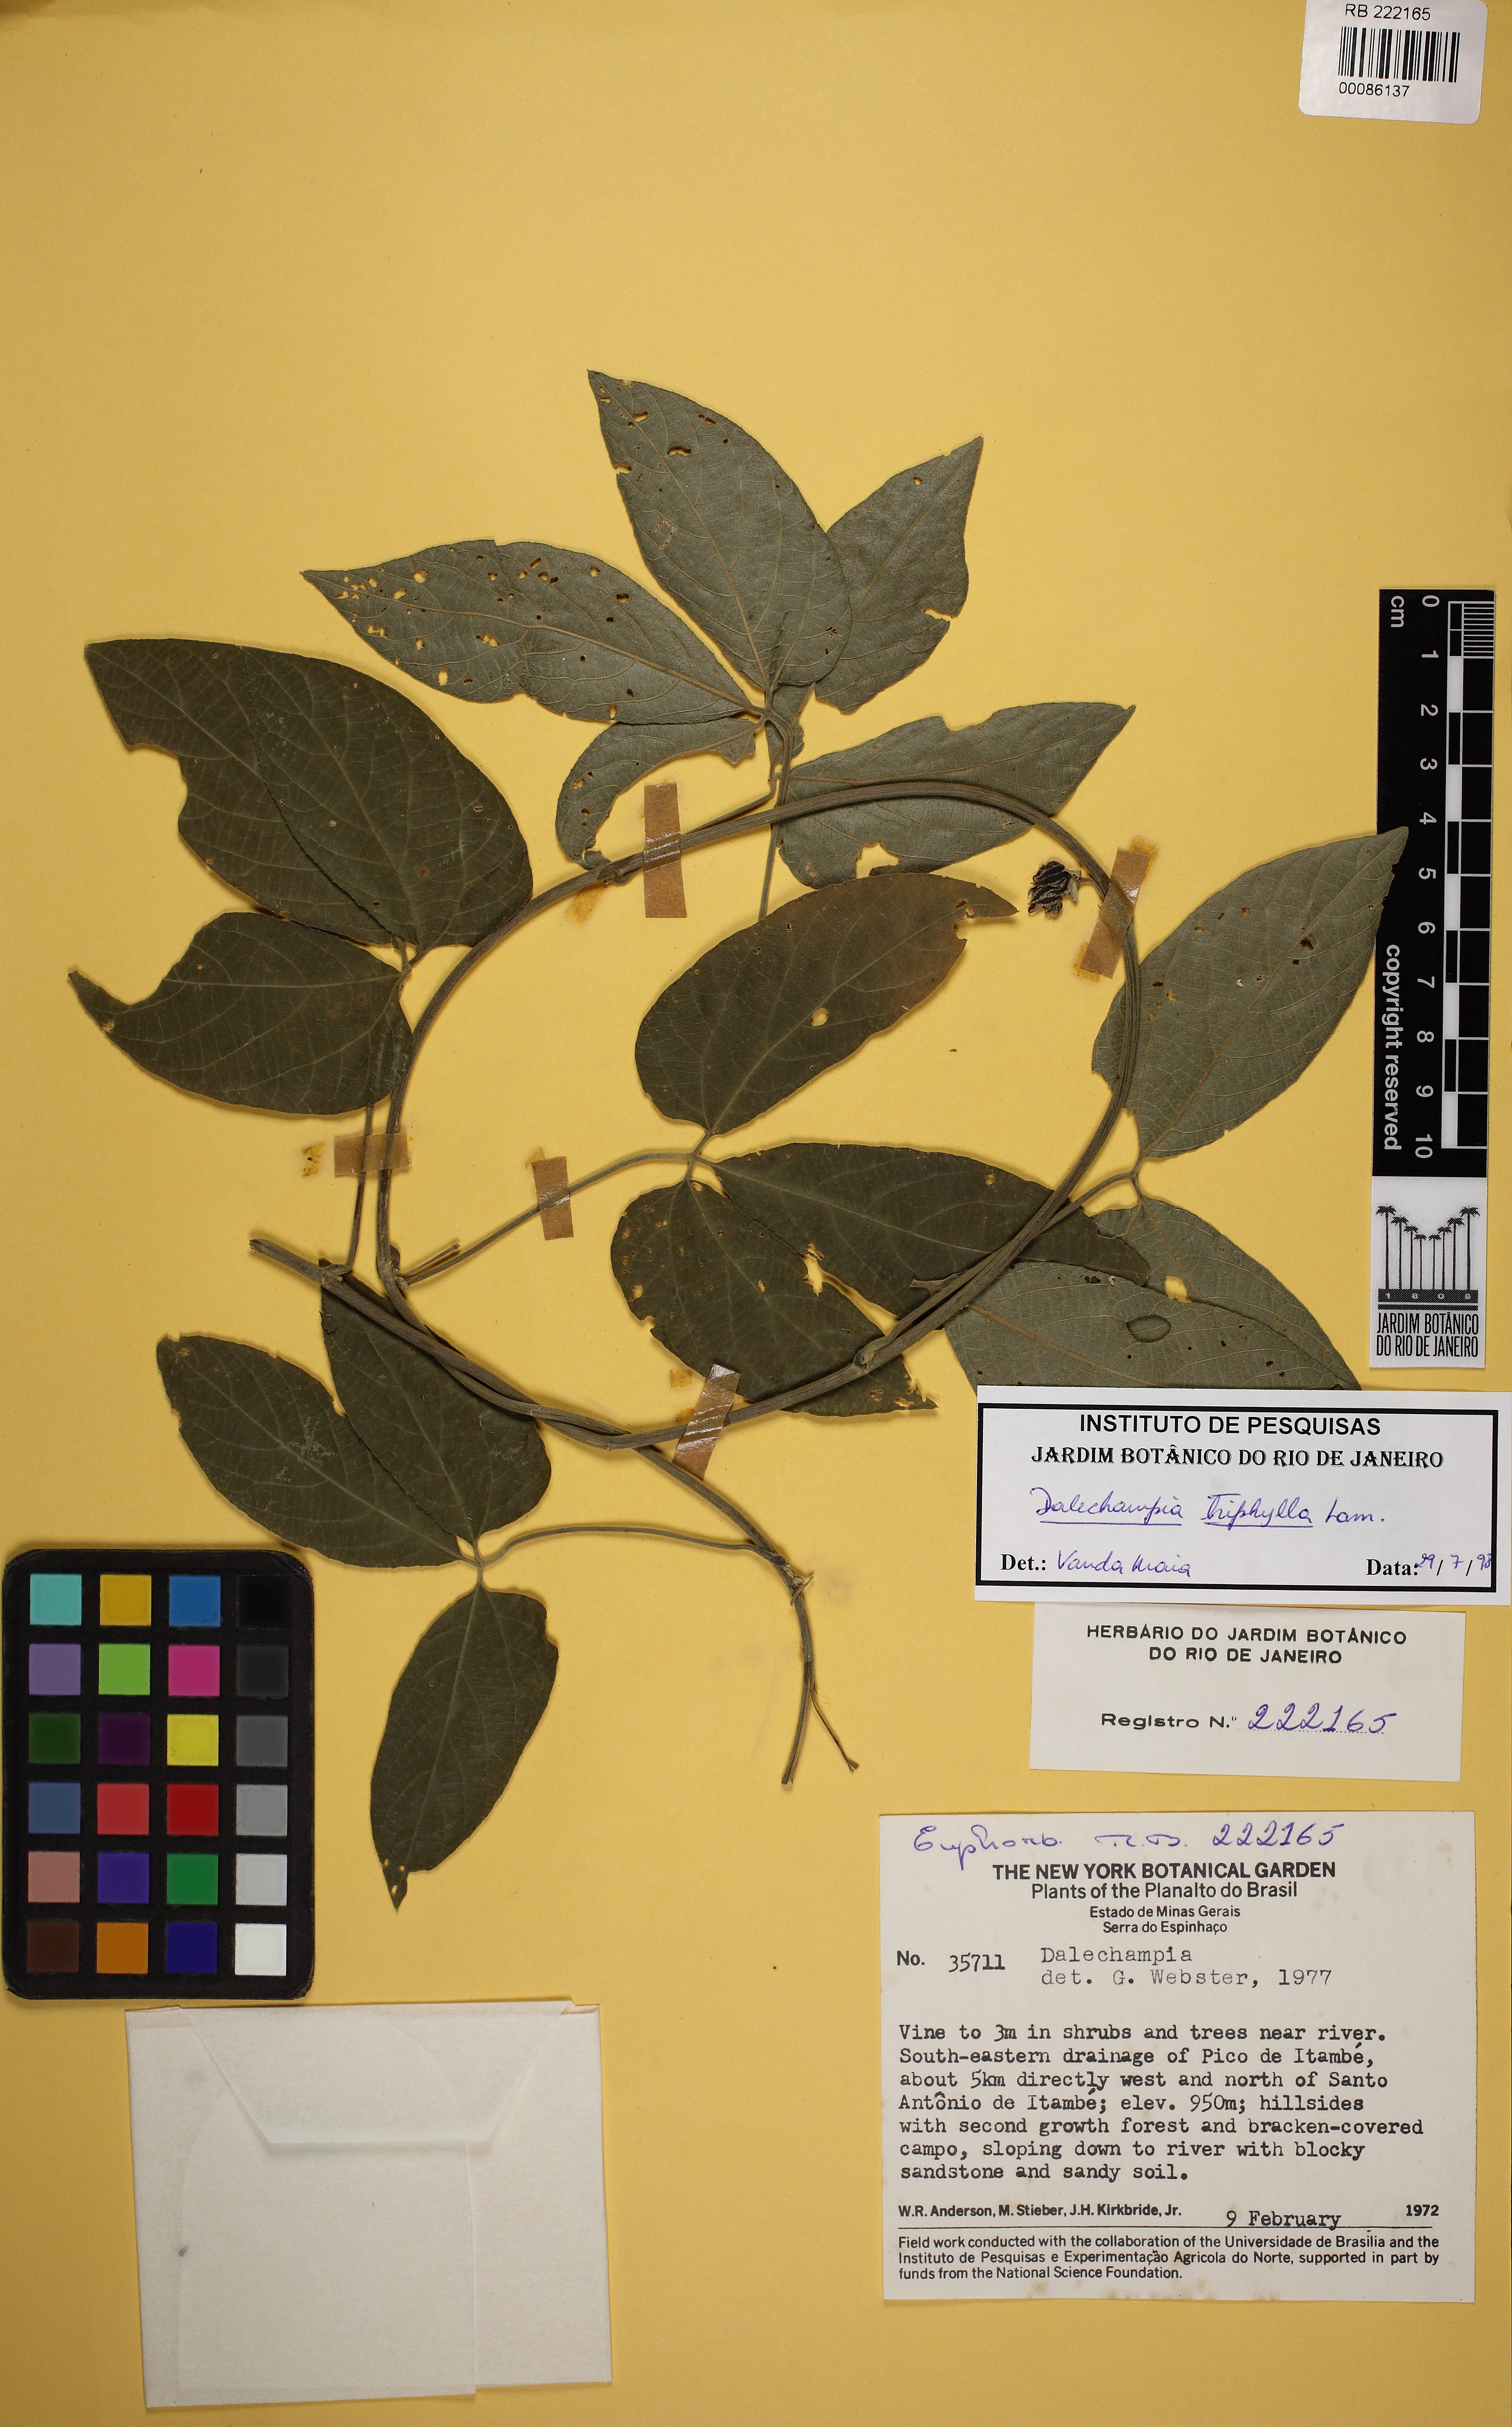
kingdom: Plantae
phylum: Tracheophyta
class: Magnoliopsida
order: Malpighiales
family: Euphorbiaceae
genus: Dalechampia
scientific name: Dalechampia triphylla
